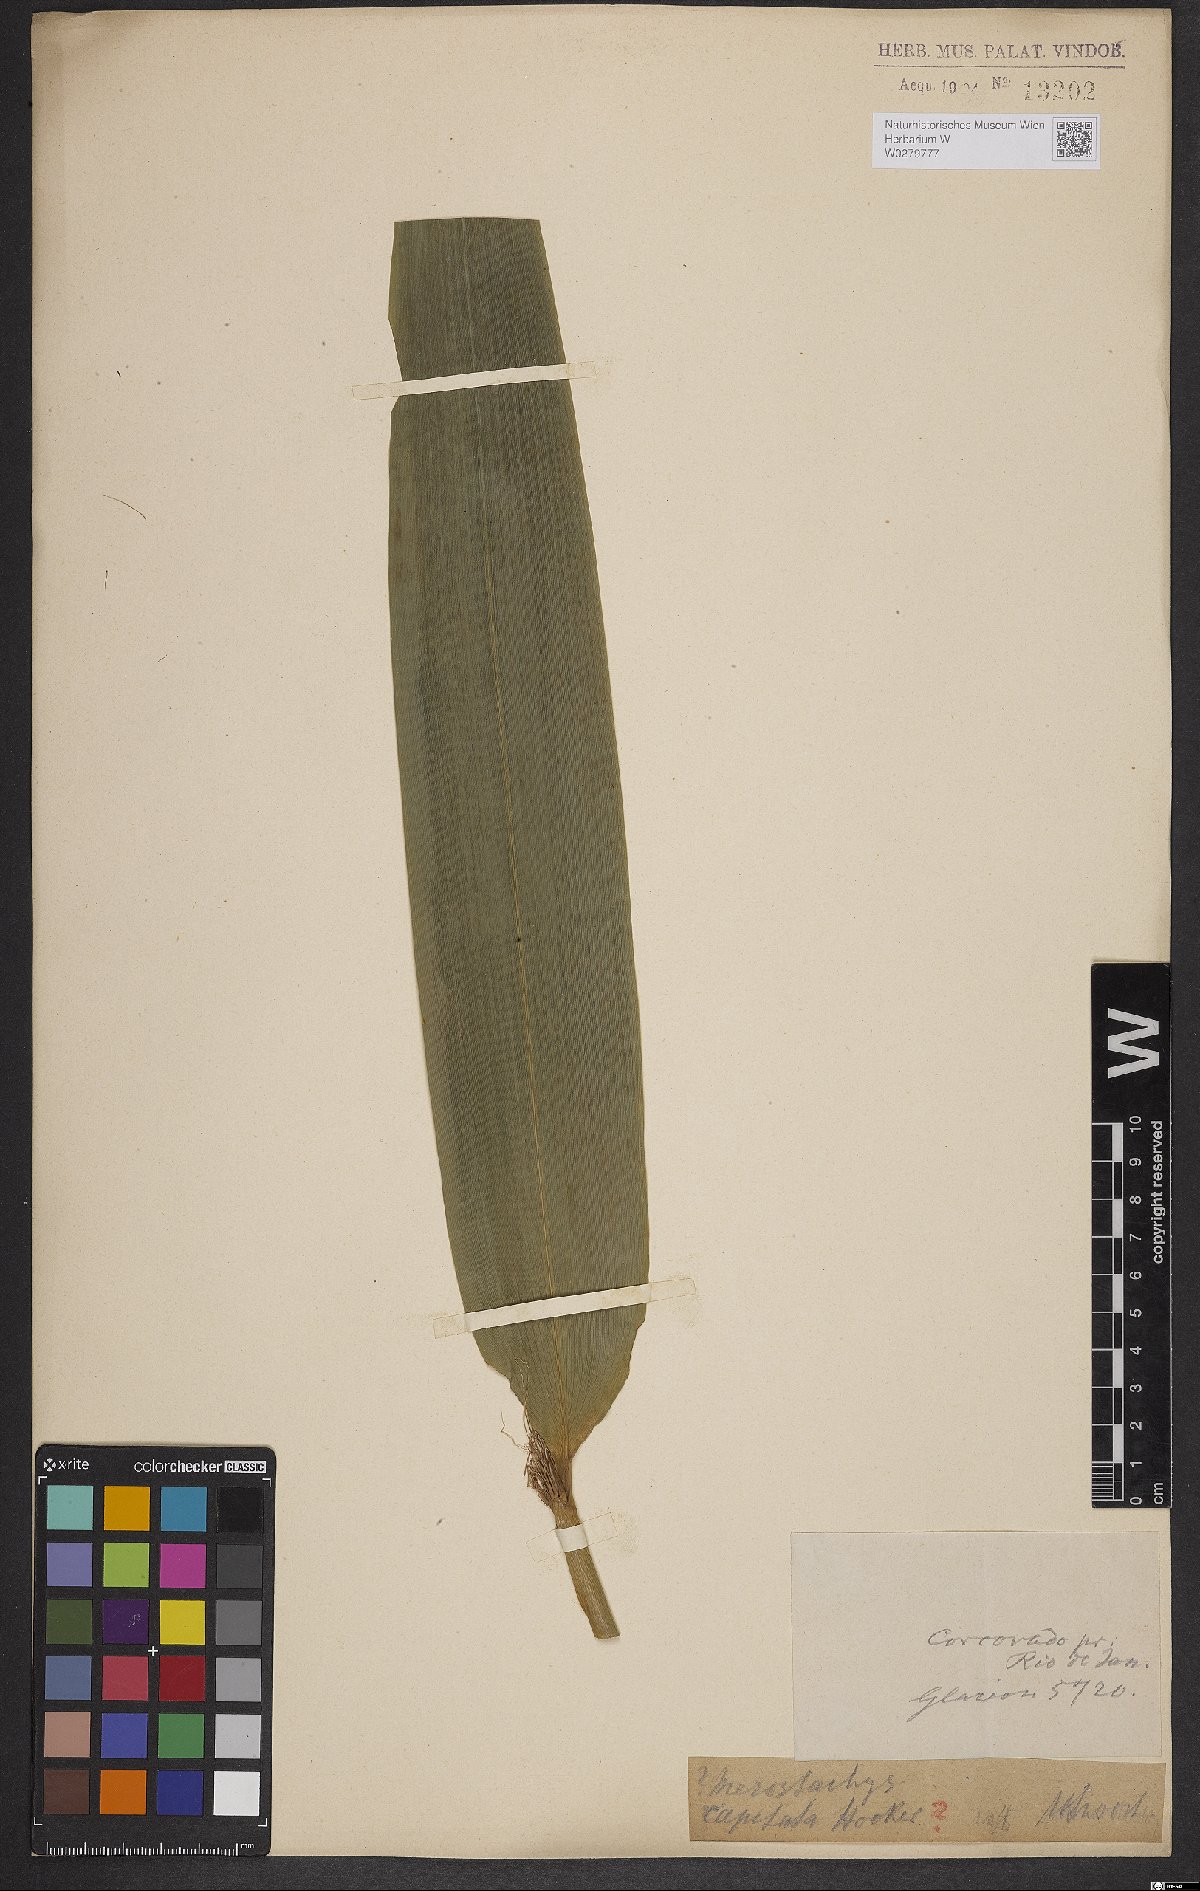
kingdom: Plantae
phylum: Tracheophyta
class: Liliopsida
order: Poales
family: Poaceae
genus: Athroostachys
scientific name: Athroostachys capitata
